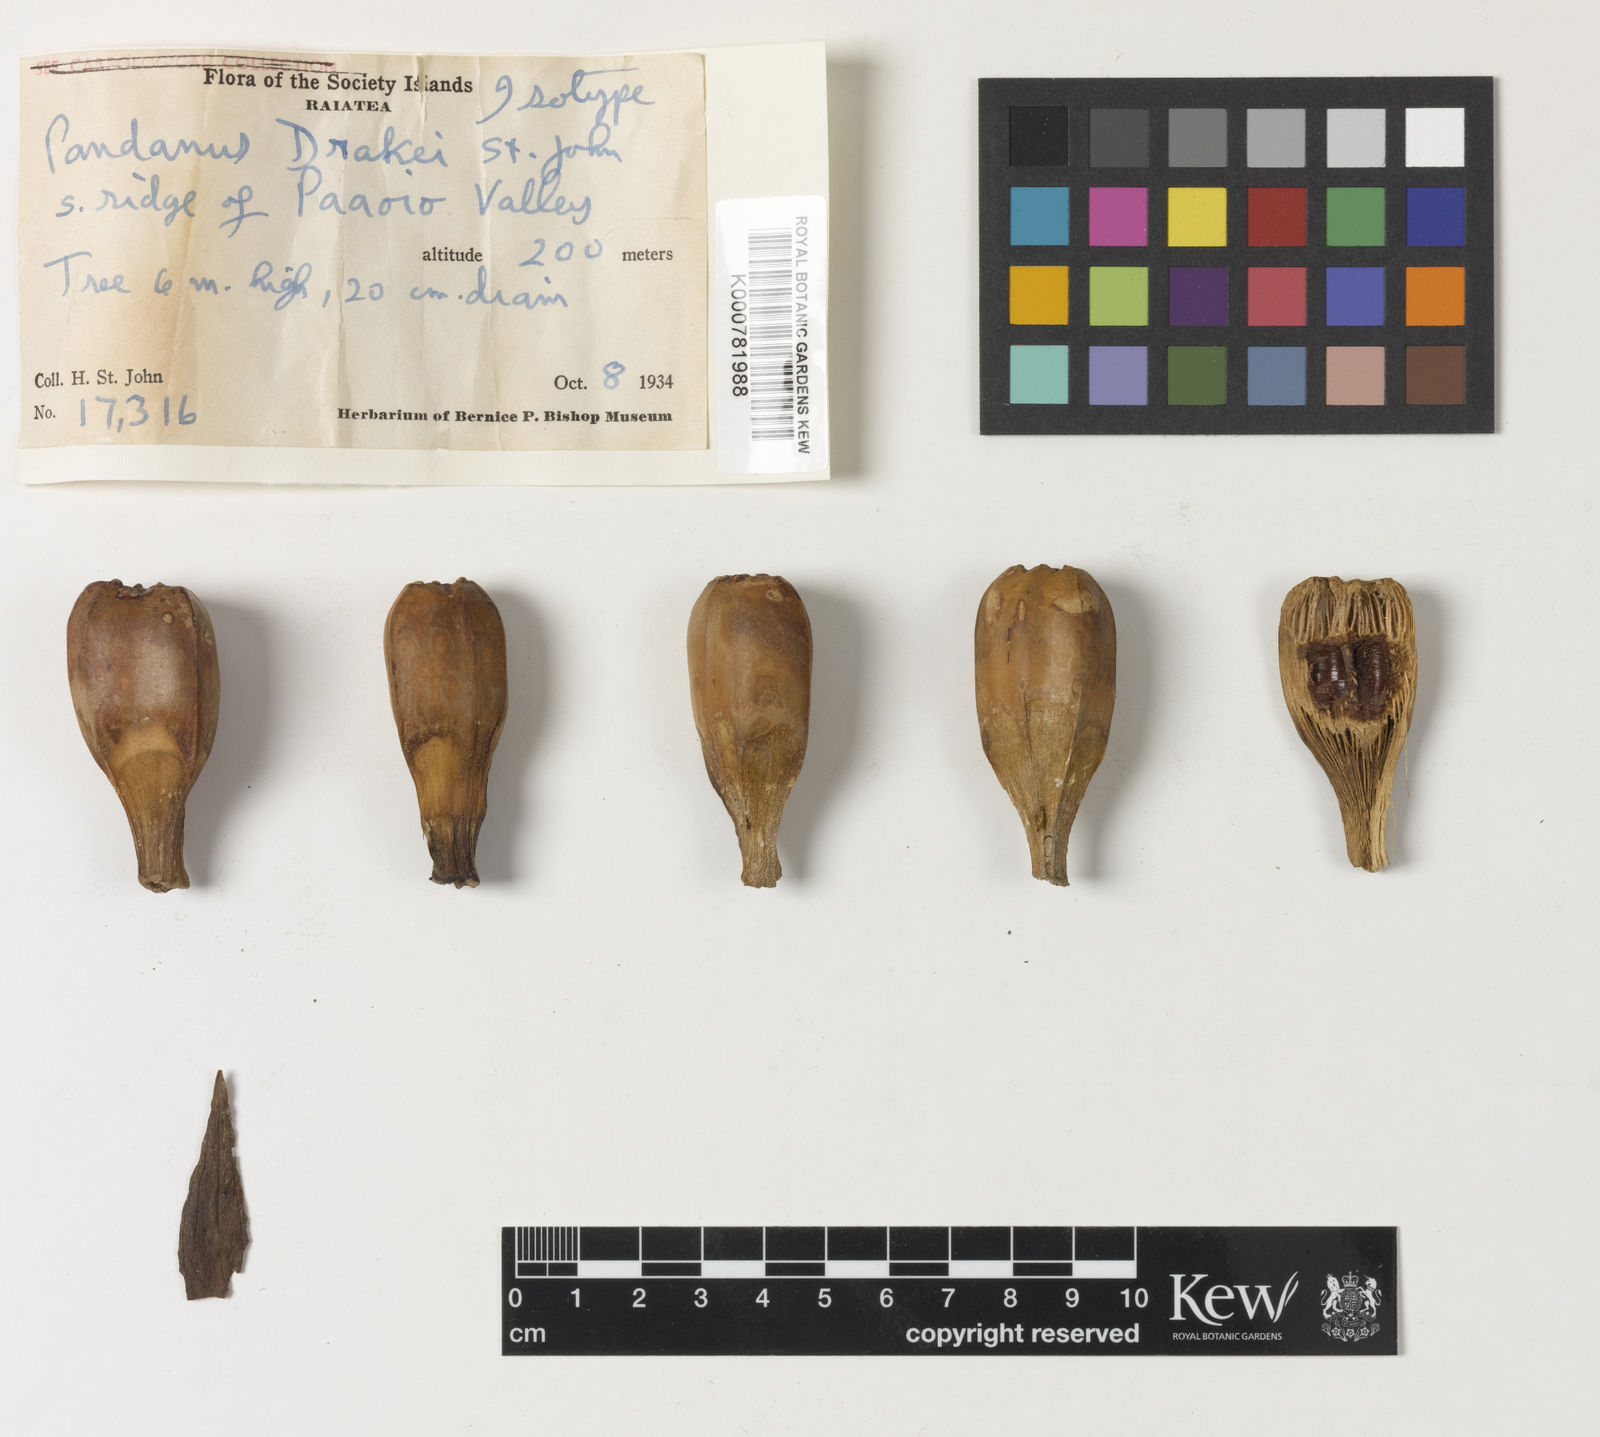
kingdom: Plantae
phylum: Tracheophyta
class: Liliopsida
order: Pandanales
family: Pandanaceae
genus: Pandanus
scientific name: Pandanus tectorius
